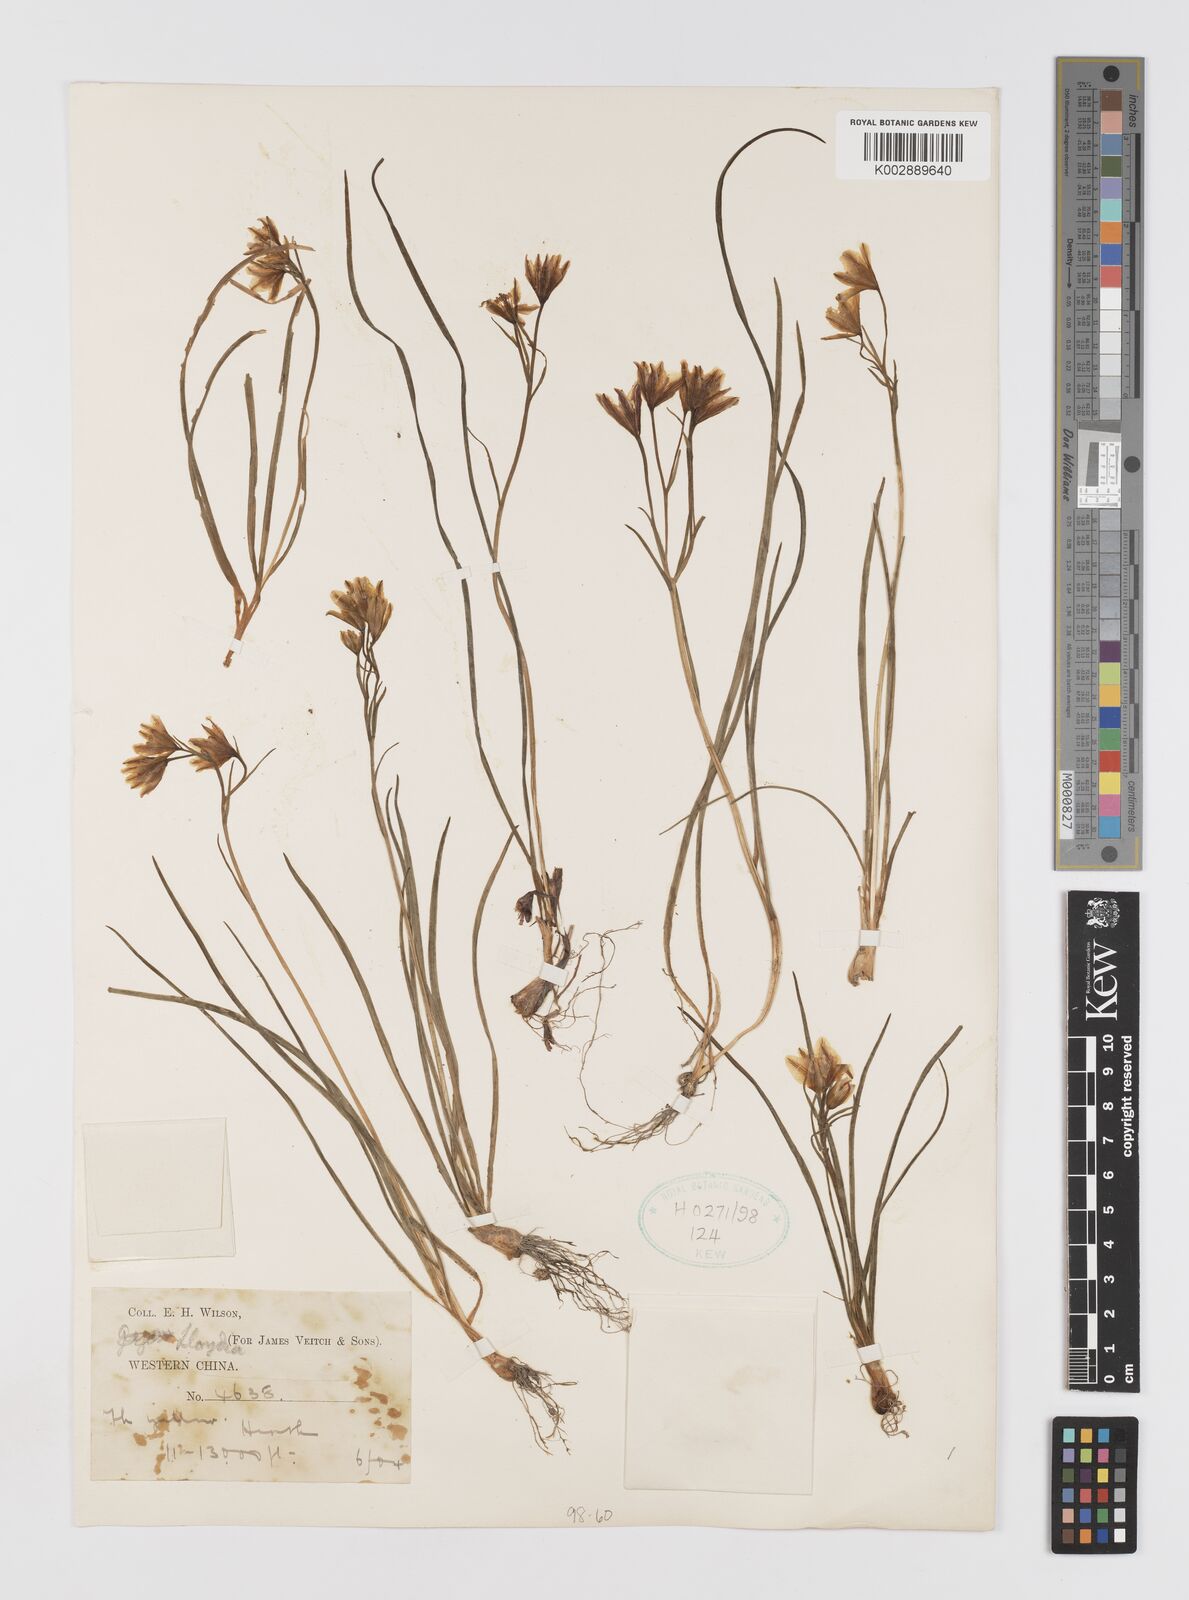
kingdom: Plantae
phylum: Tracheophyta
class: Liliopsida
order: Liliales
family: Liliaceae
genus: Gagea
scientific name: Gagea
